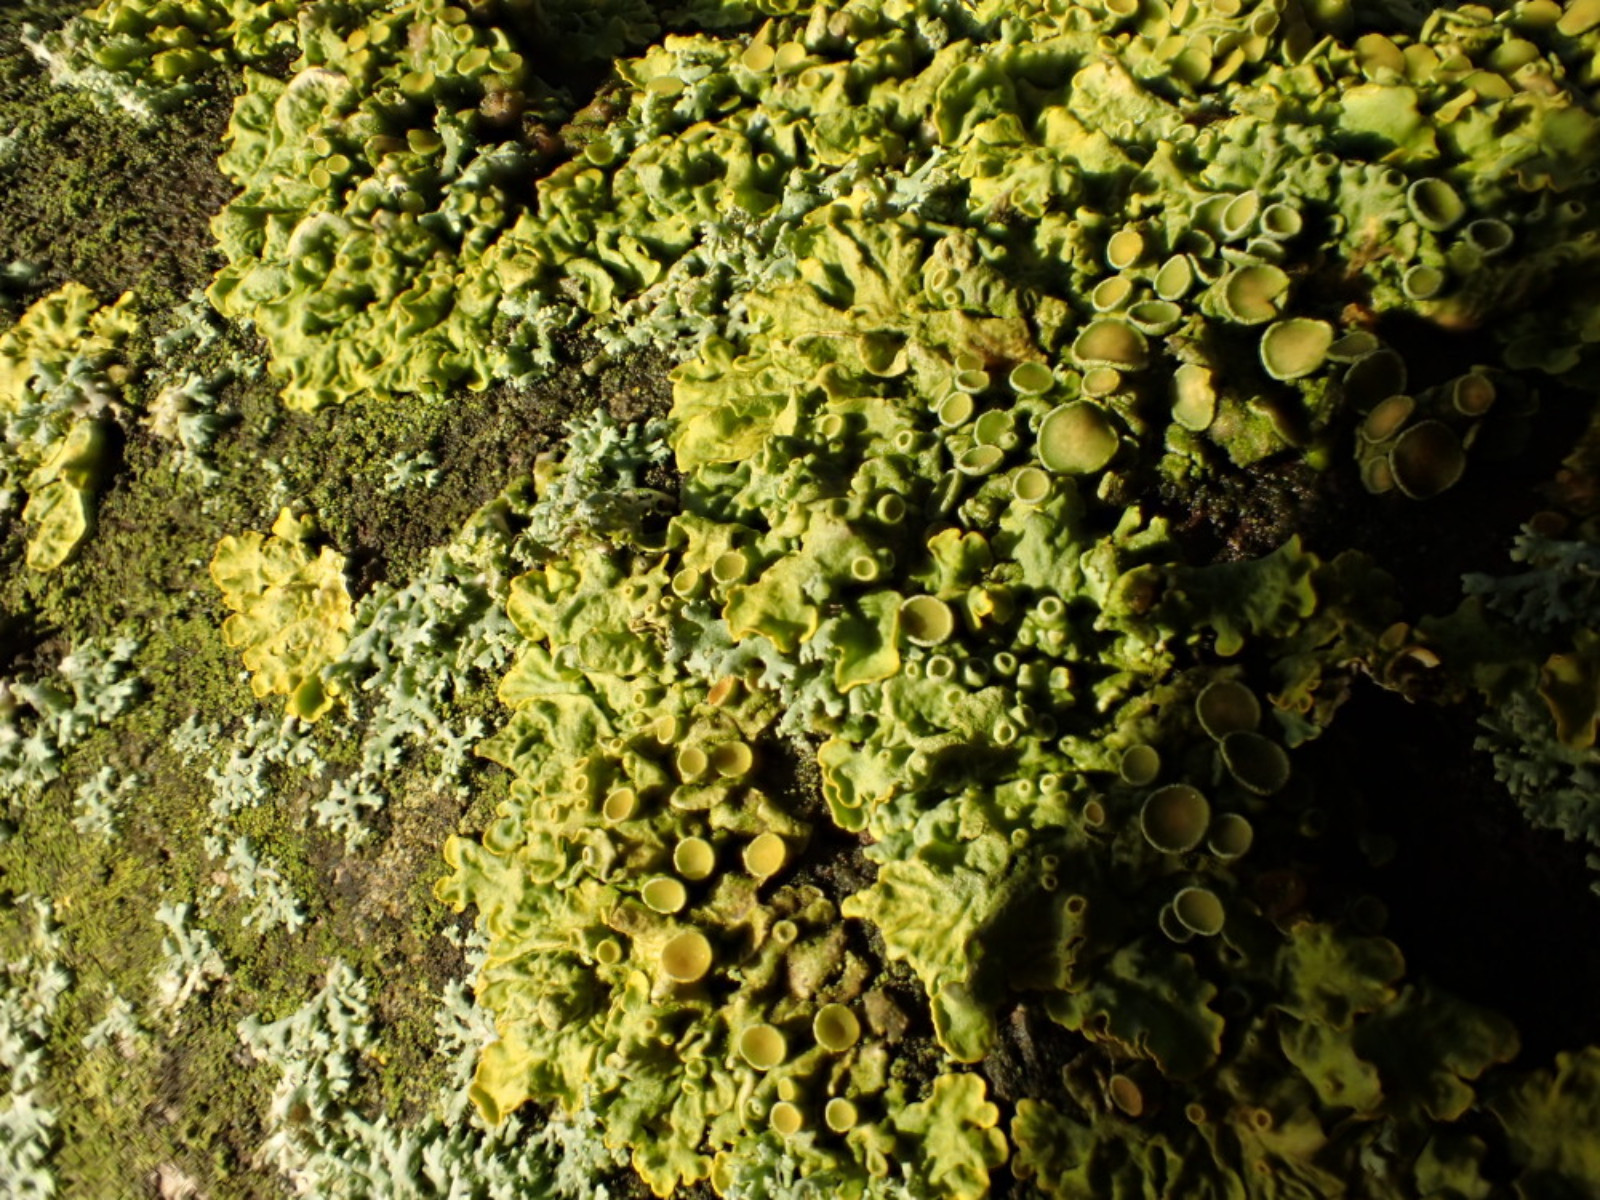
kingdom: Fungi
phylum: Ascomycota
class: Lecanoromycetes
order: Teloschistales
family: Teloschistaceae
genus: Xanthoria
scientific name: Xanthoria parietina
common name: almindelig væggelav
